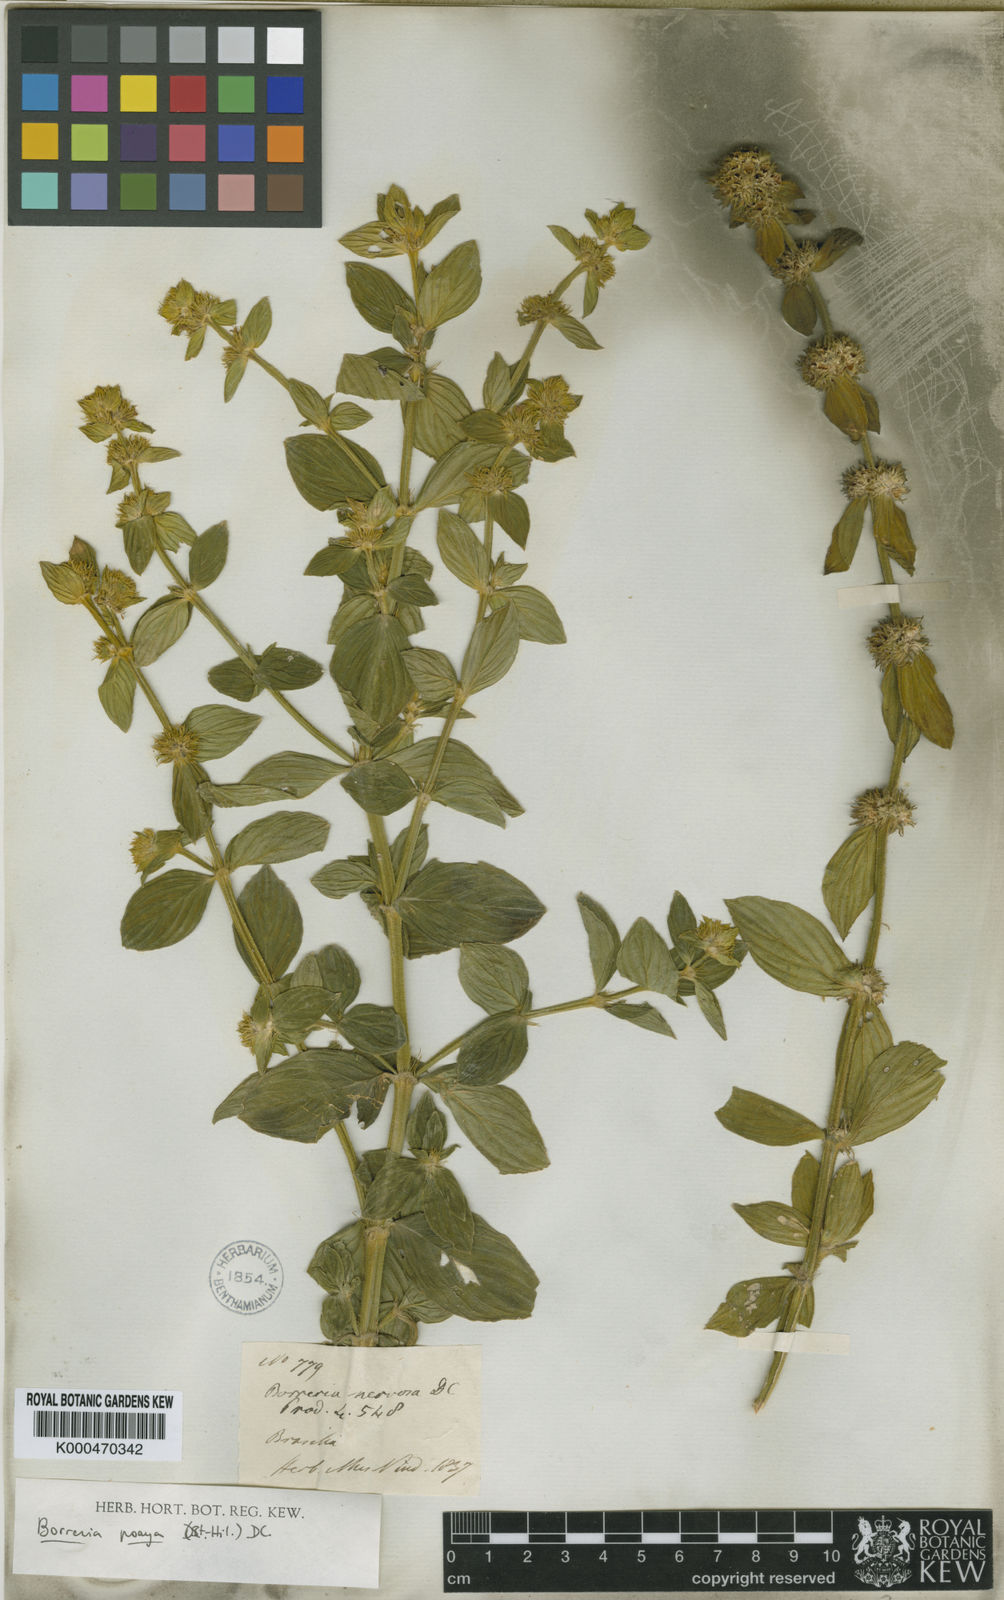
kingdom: Plantae
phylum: Tracheophyta
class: Magnoliopsida
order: Gentianales
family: Rubiaceae
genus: Spermacoce
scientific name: Spermacoce poaya
